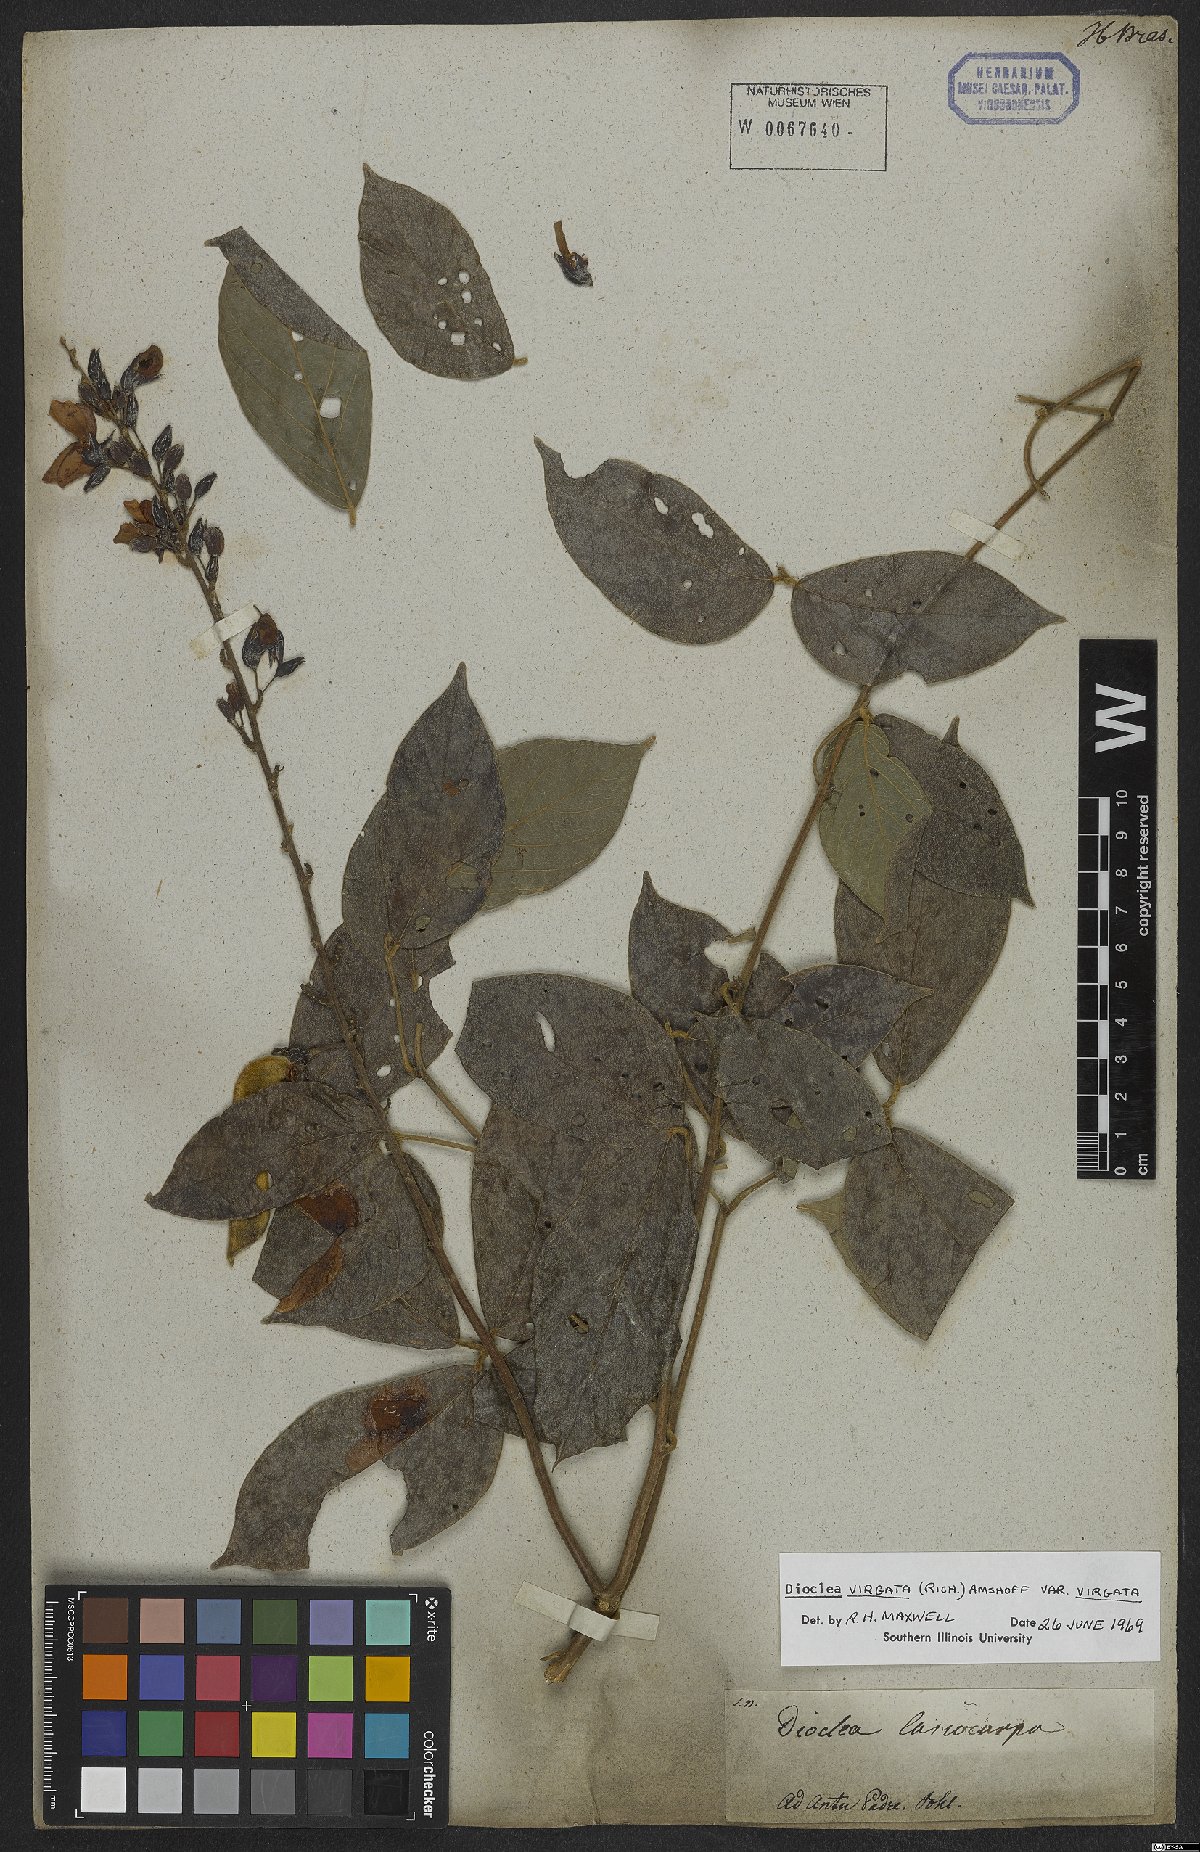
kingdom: Plantae
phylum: Tracheophyta
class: Magnoliopsida
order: Fabales
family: Fabaceae
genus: Dioclea
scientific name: Dioclea virgata
